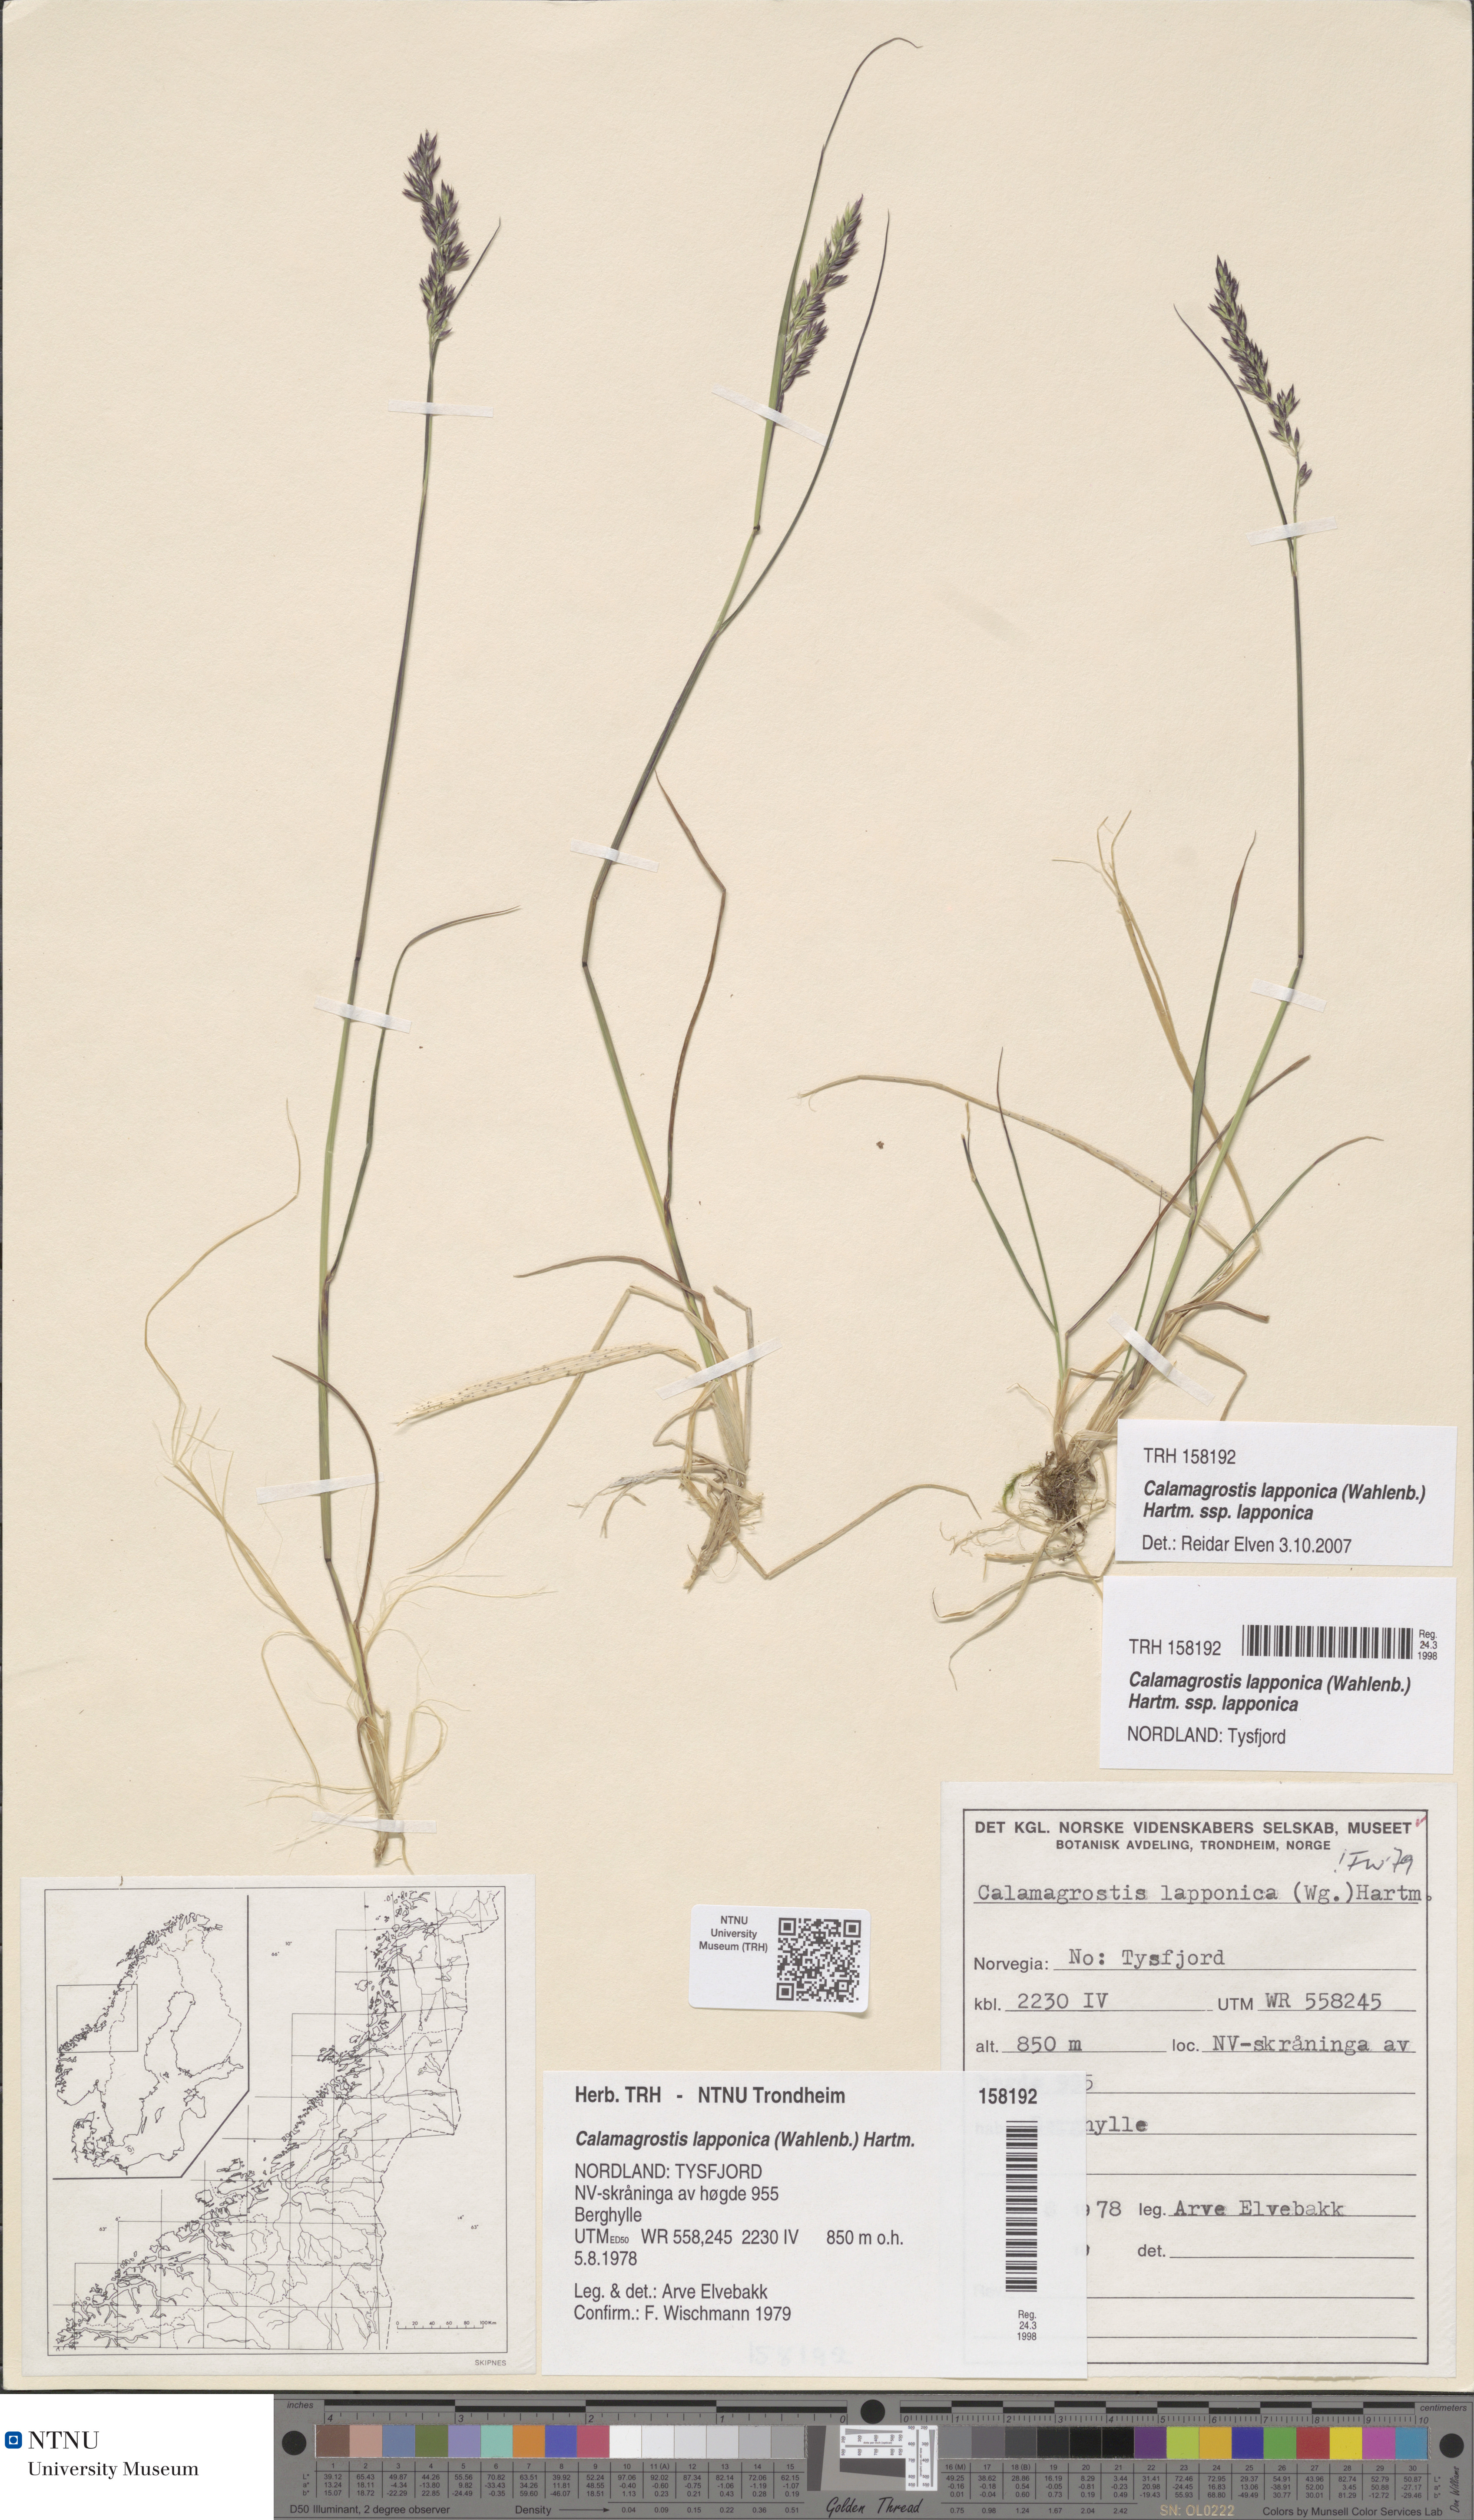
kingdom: Plantae
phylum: Tracheophyta
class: Liliopsida
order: Poales
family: Poaceae
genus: Calamagrostis
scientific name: Calamagrostis lapponica
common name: Lapland reedgrass
